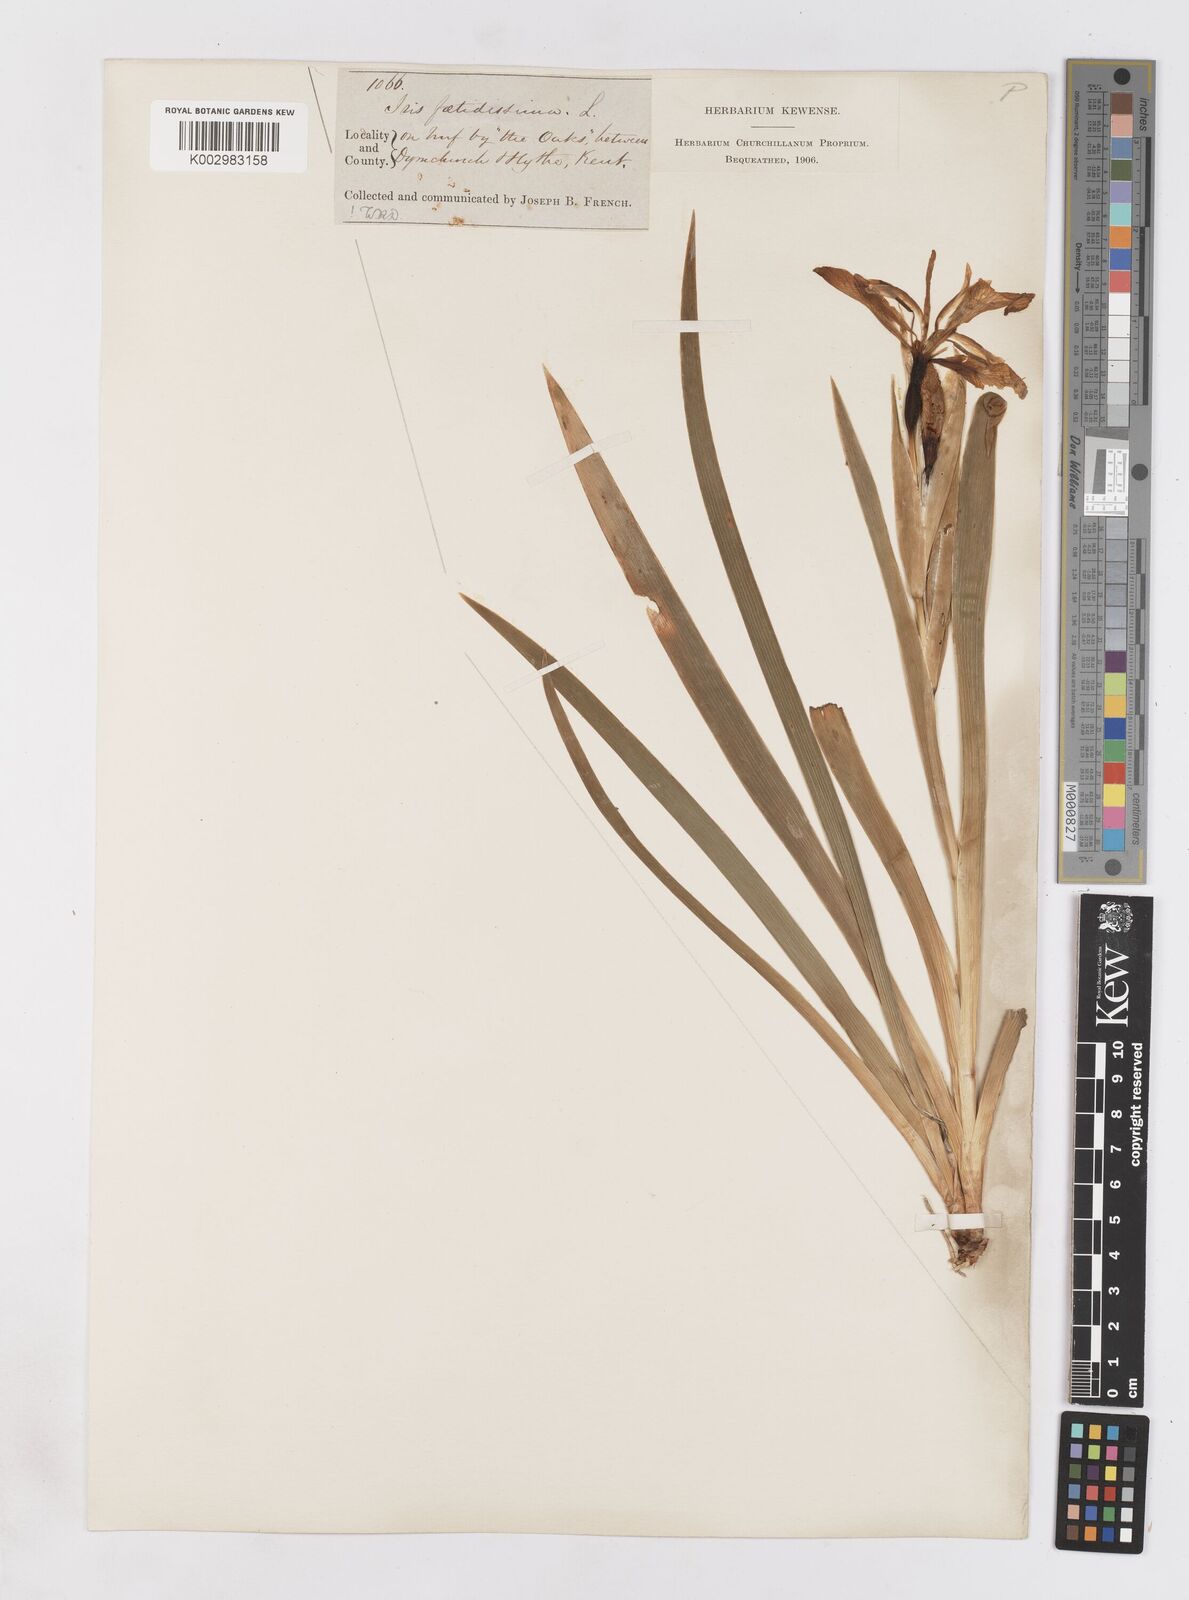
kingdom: Plantae
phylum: Tracheophyta
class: Liliopsida
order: Asparagales
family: Iridaceae
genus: Iris
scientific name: Iris foetidissima
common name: Stinking iris
